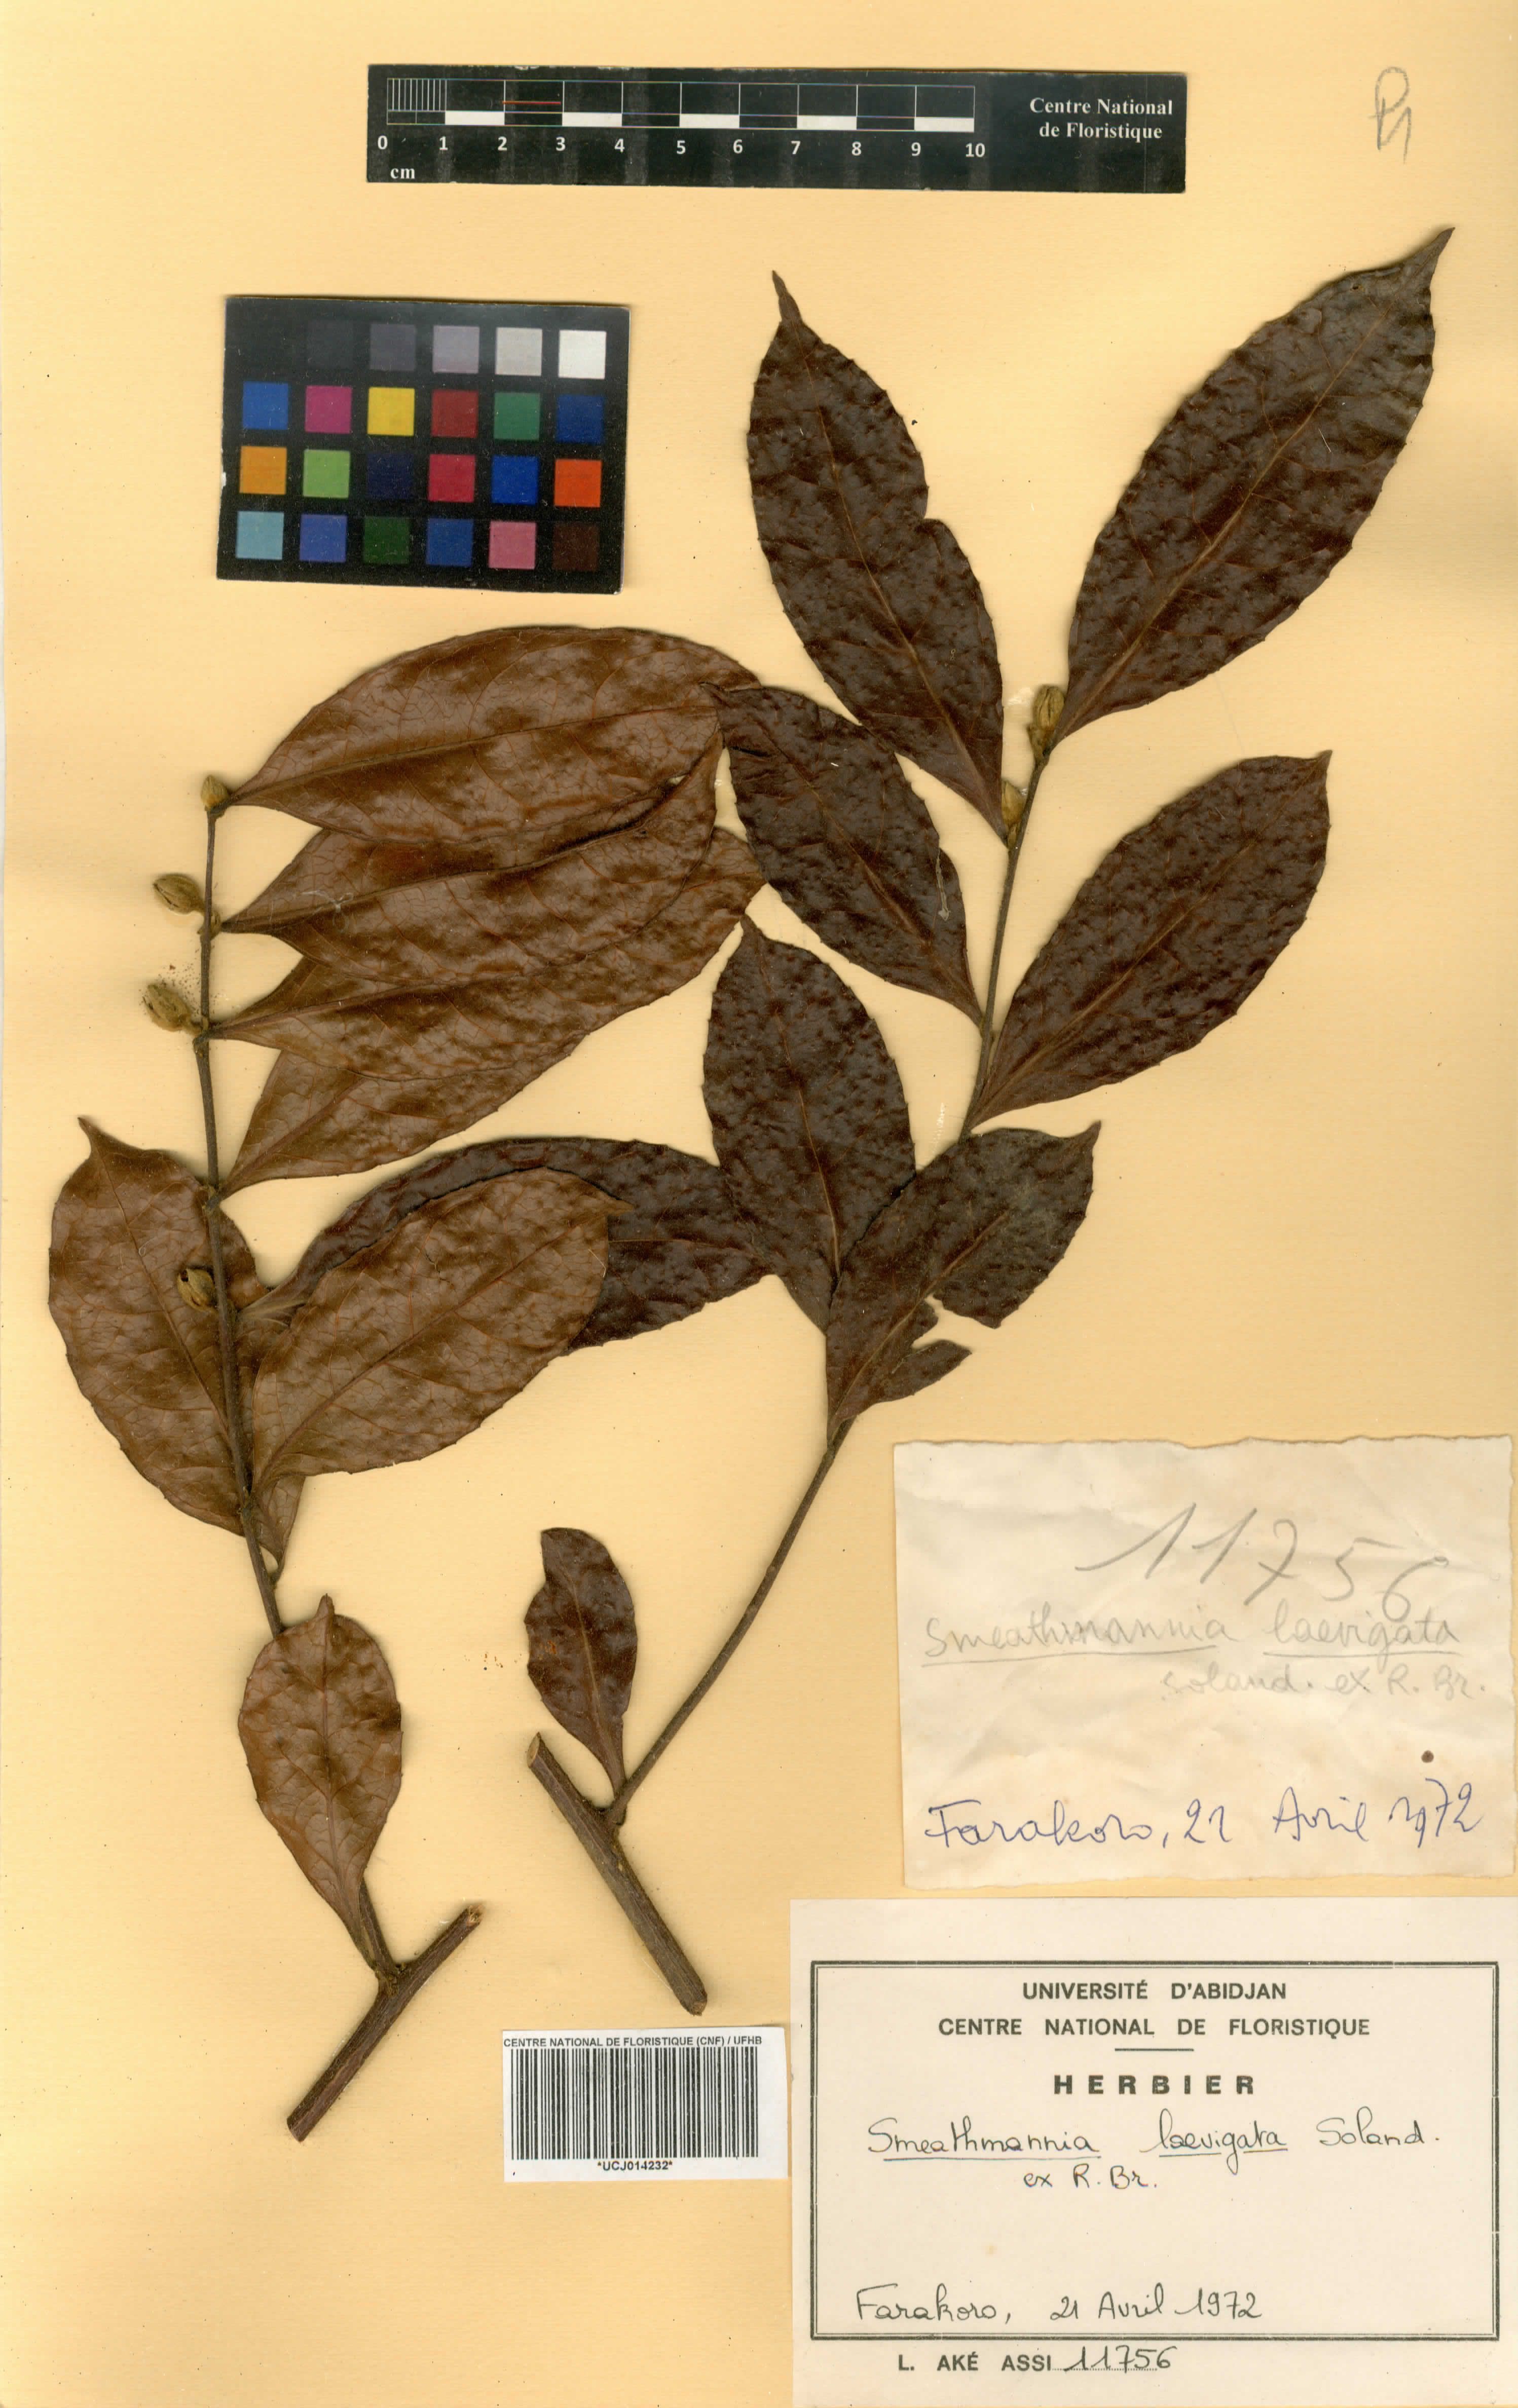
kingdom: Plantae
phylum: Tracheophyta
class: Magnoliopsida
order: Malpighiales
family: Passifloraceae
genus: Smeathmannia
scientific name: Smeathmannia laevigata
